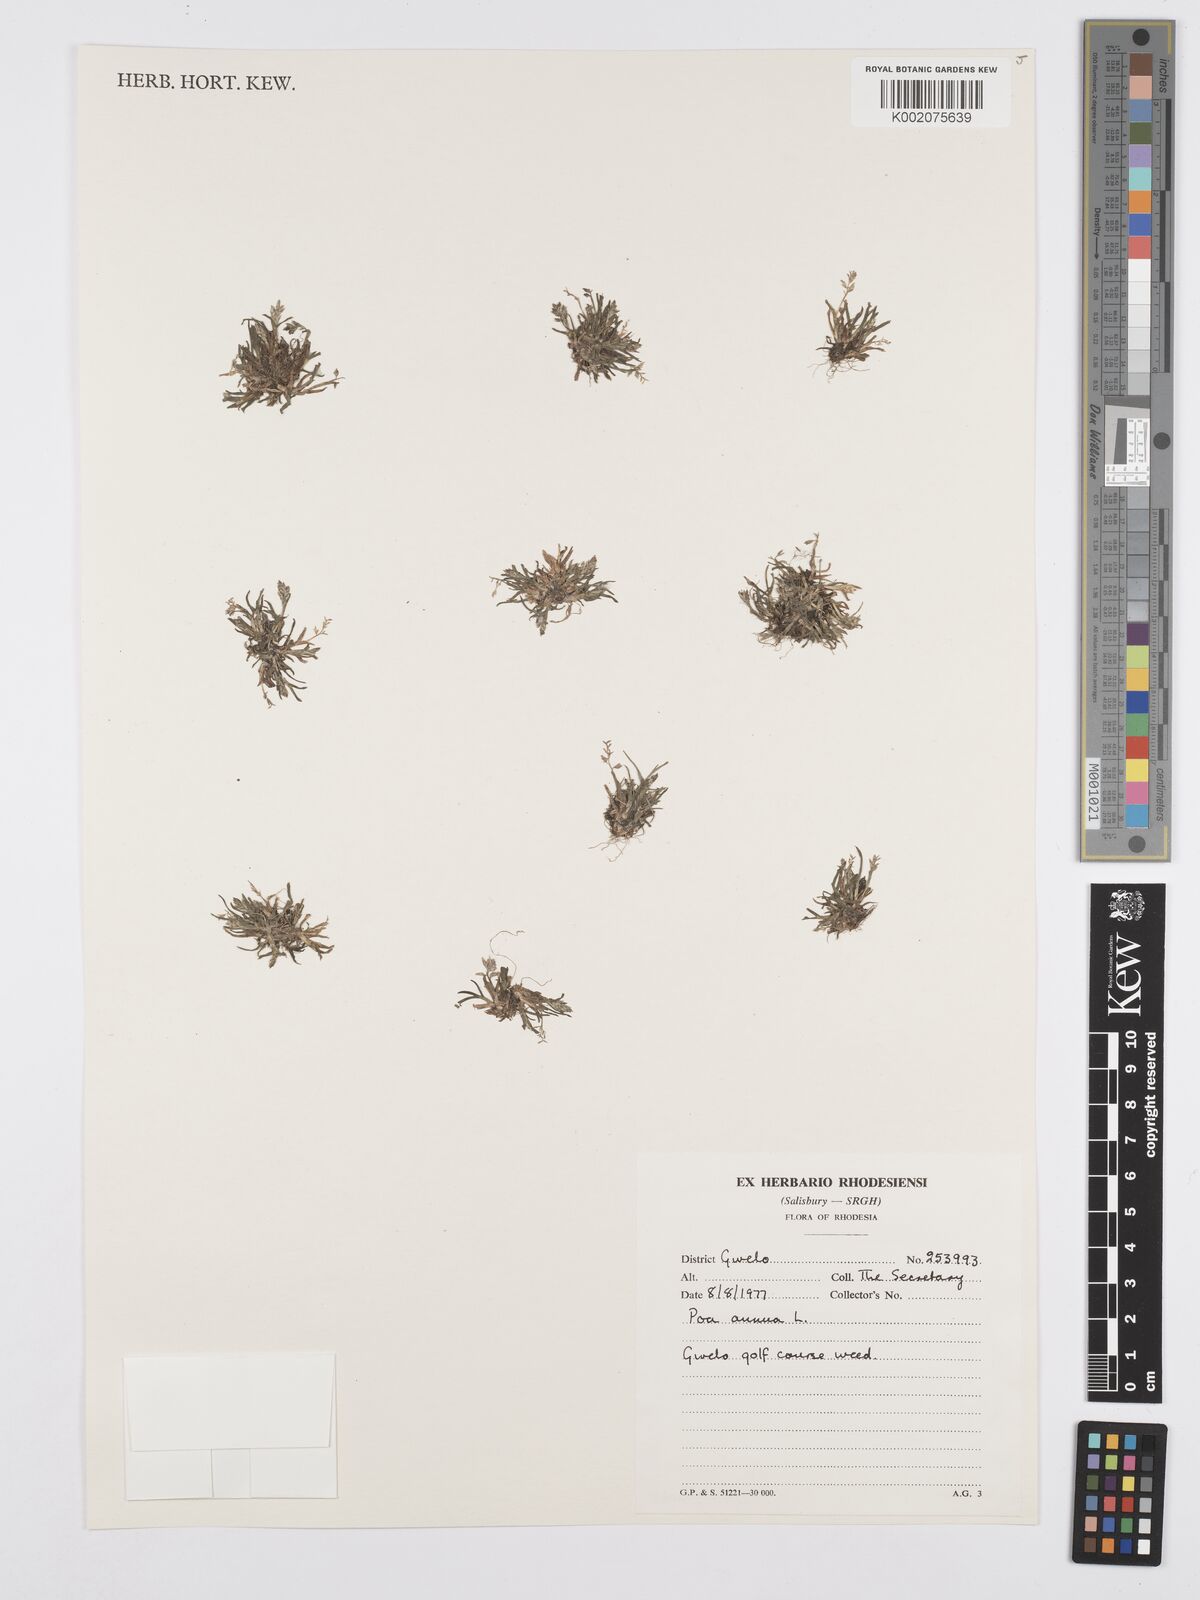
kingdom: Plantae
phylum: Tracheophyta
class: Liliopsida
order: Poales
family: Poaceae
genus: Poa
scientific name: Poa annua
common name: Annual bluegrass
